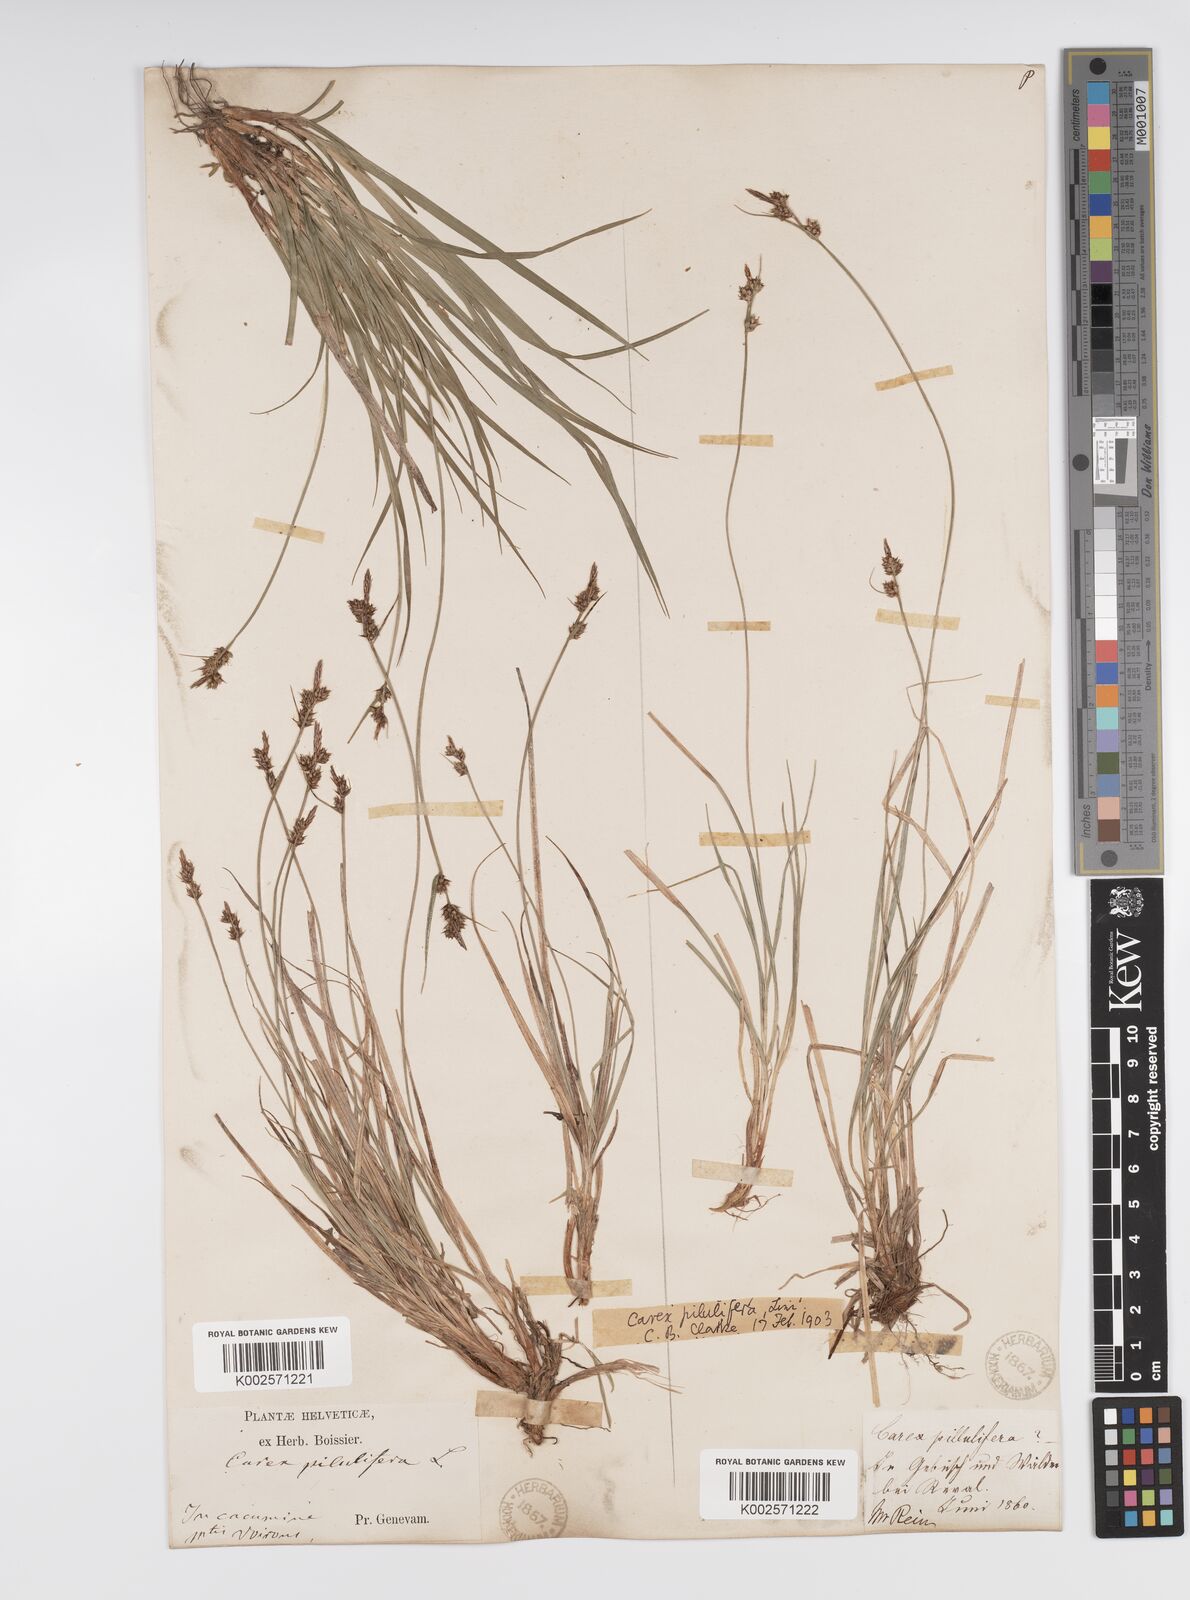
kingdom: Plantae
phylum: Tracheophyta
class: Liliopsida
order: Poales
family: Cyperaceae
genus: Carex
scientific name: Carex pilulifera
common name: Pill sedge
